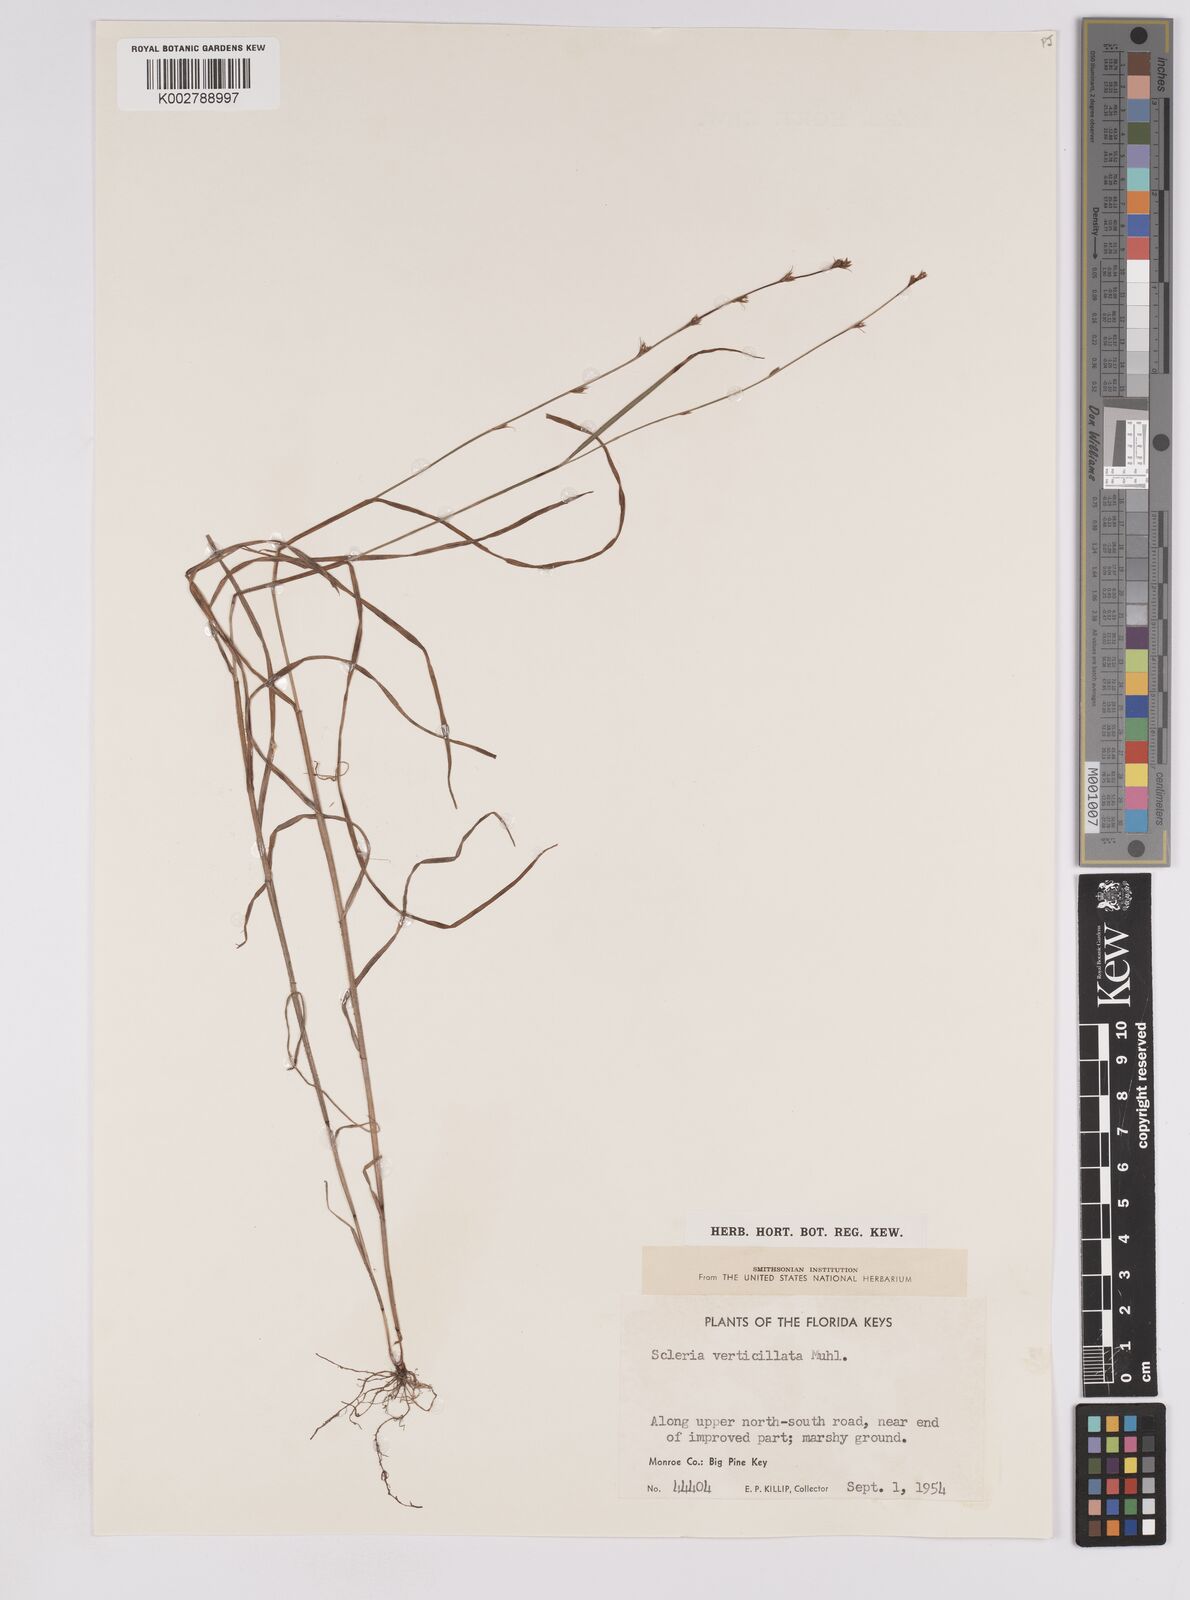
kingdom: Plantae
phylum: Tracheophyta
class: Liliopsida
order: Poales
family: Cyperaceae
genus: Scleria
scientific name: Scleria verticillata
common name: Low nutrush
